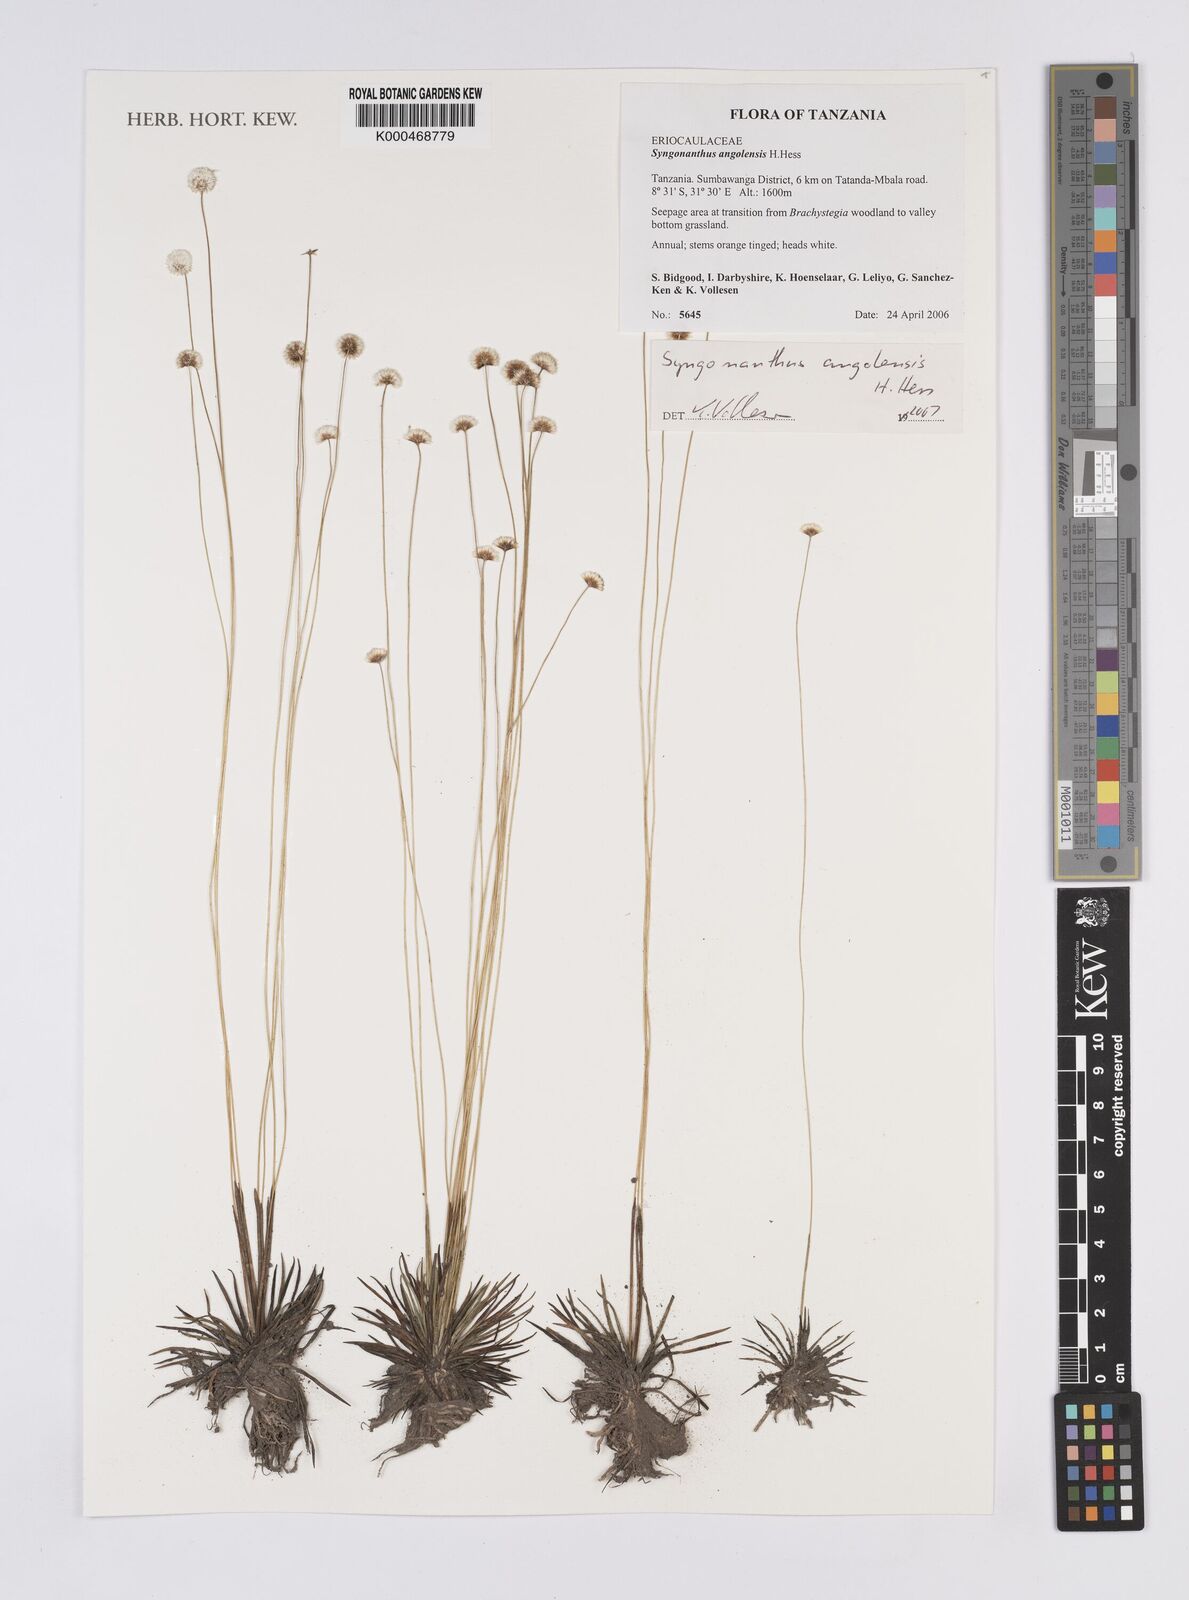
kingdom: Plantae
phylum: Tracheophyta
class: Liliopsida
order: Poales
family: Eriocaulaceae
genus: Syngonanthus
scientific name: Syngonanthus angolensis
